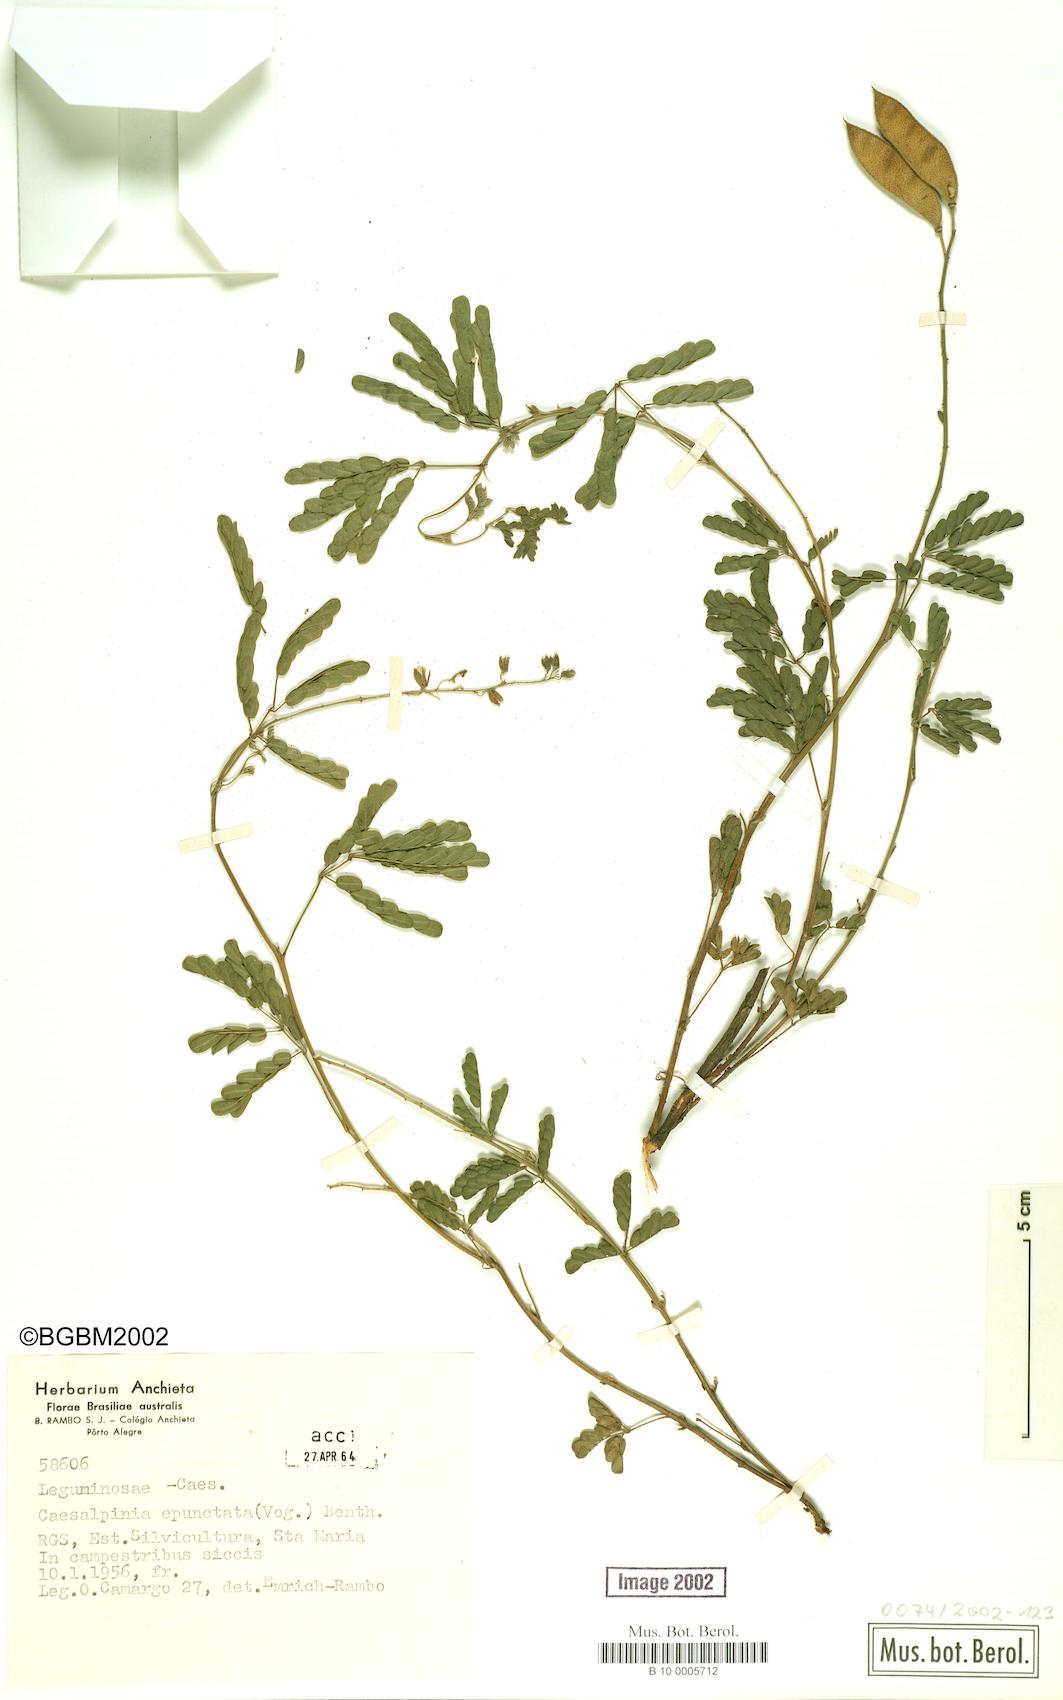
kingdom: Plantae
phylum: Tracheophyta
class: Magnoliopsida
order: Fabales
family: Fabaceae
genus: Pomaria
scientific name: Pomaria pilosa
